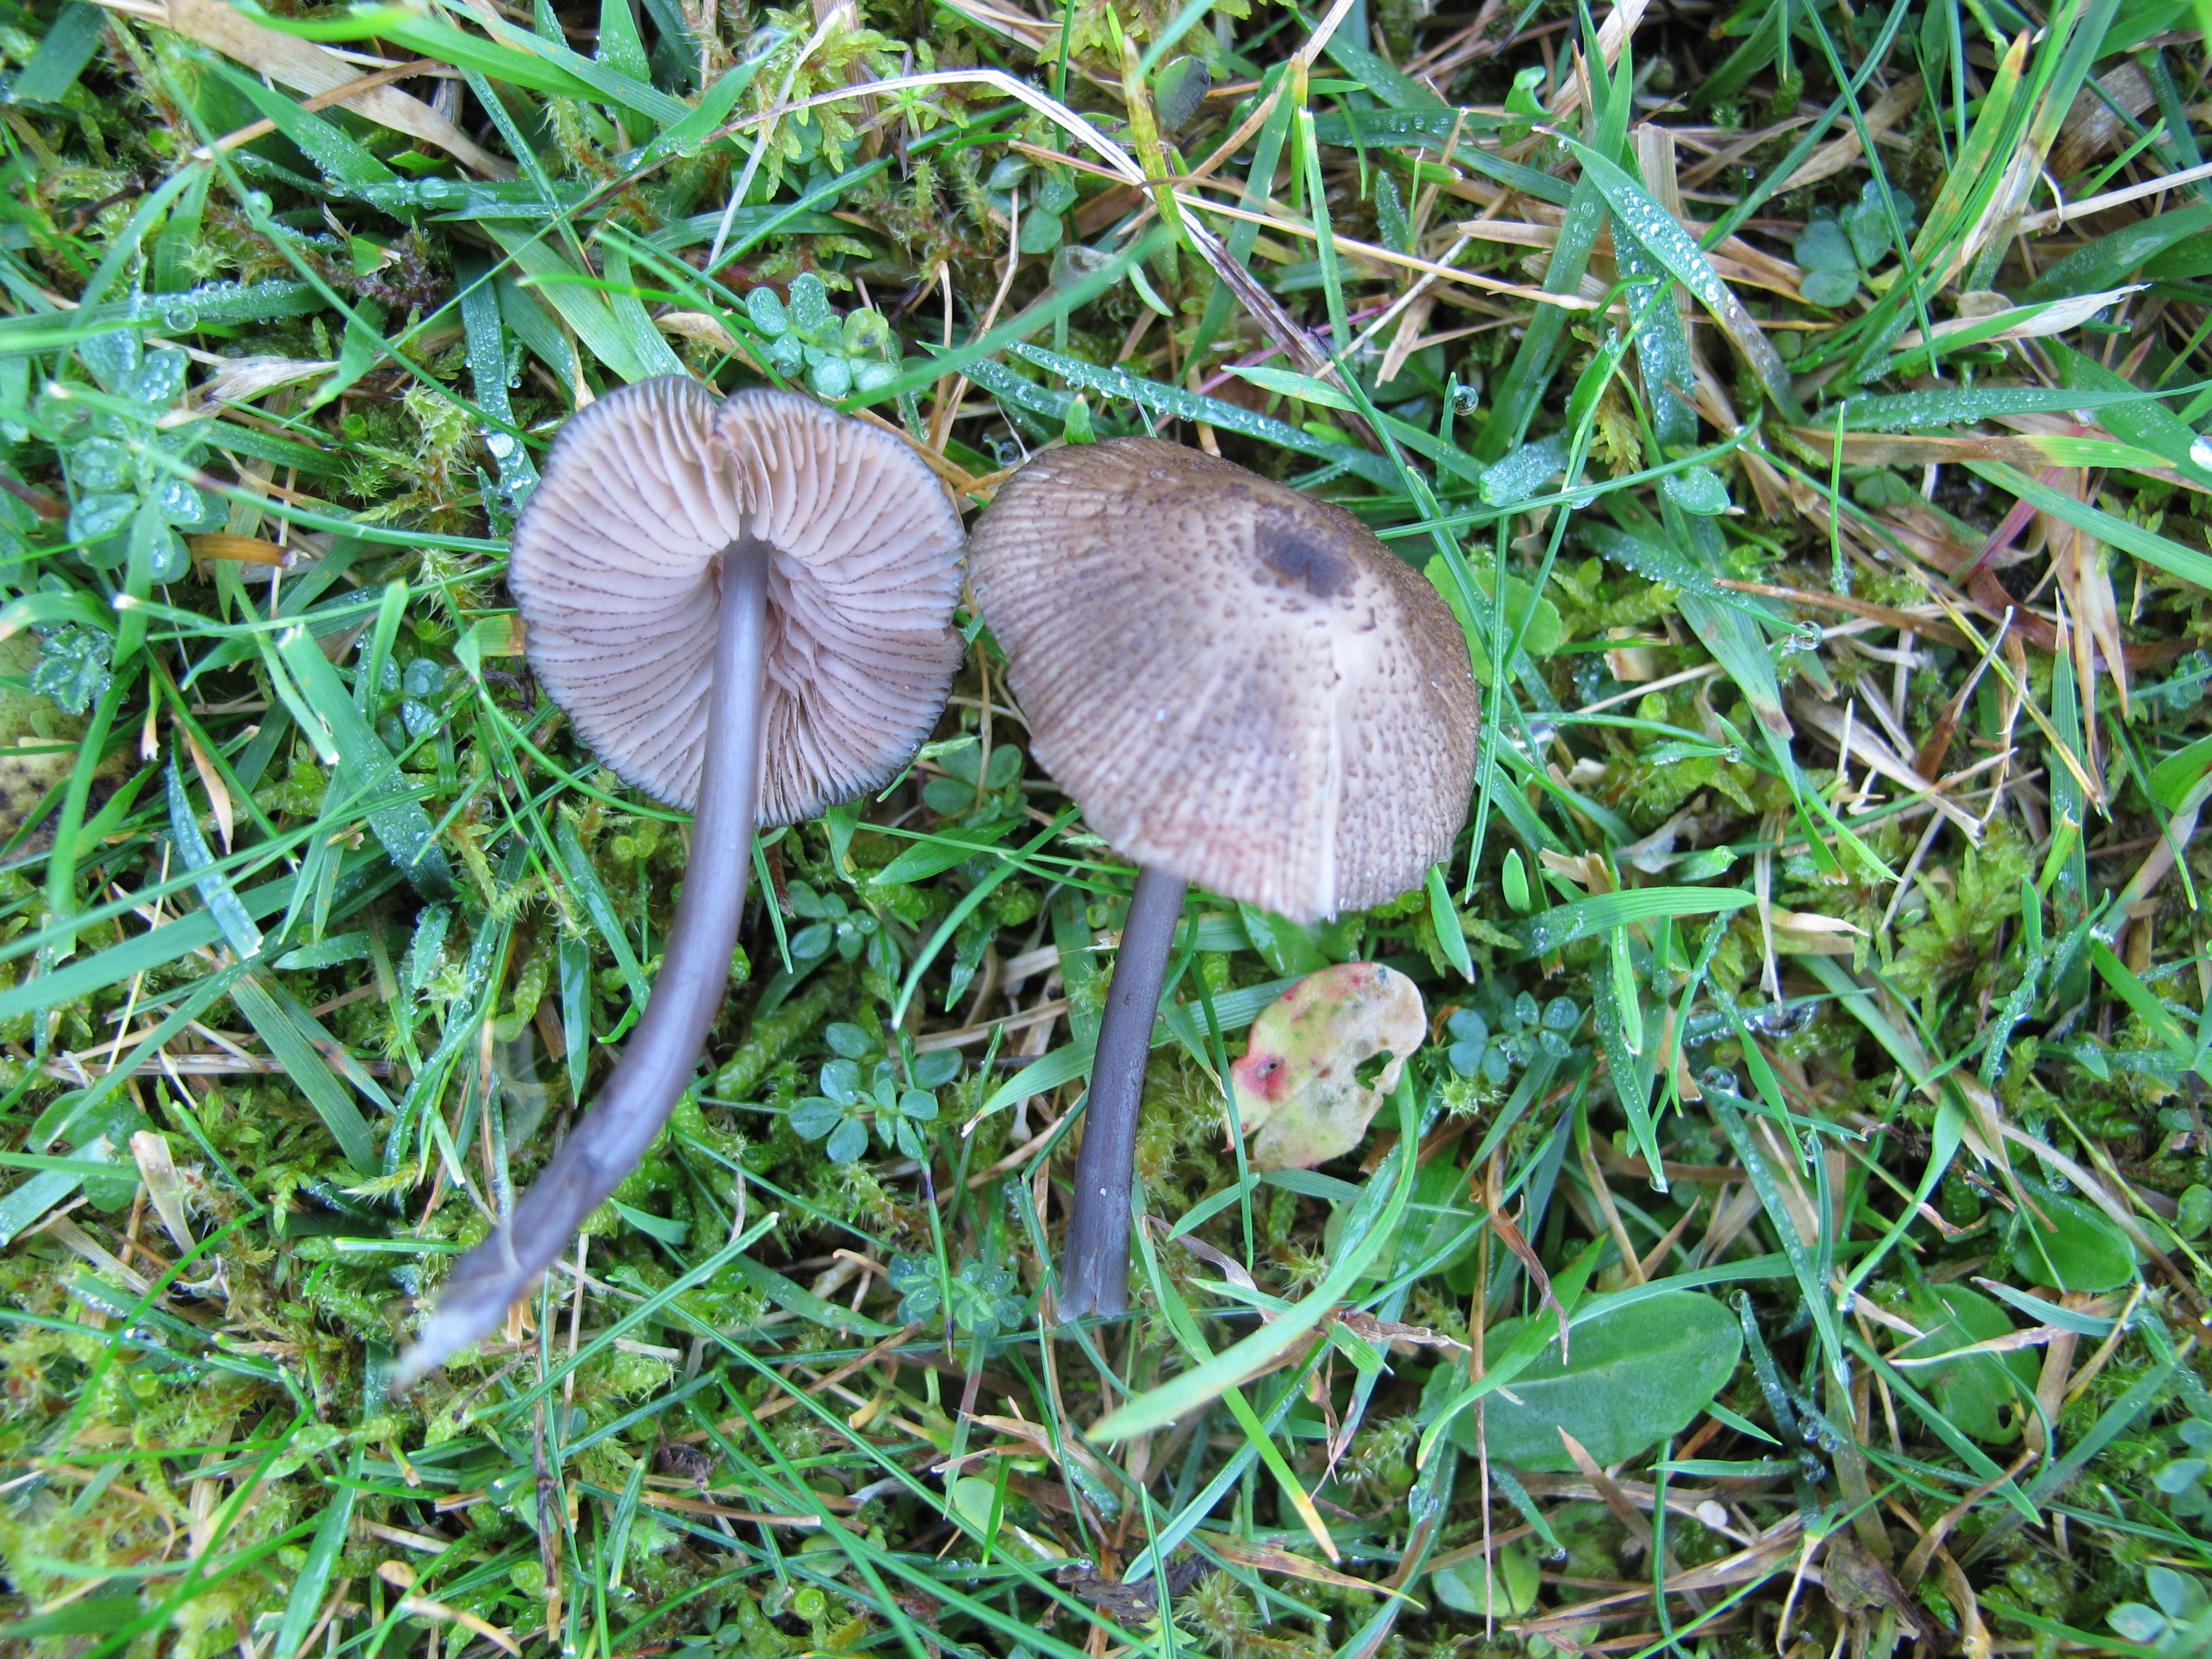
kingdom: Fungi
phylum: Basidiomycota
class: Agaricomycetes
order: Agaricales
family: Entolomataceae
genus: Entoloma
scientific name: Entoloma glaucobasis
